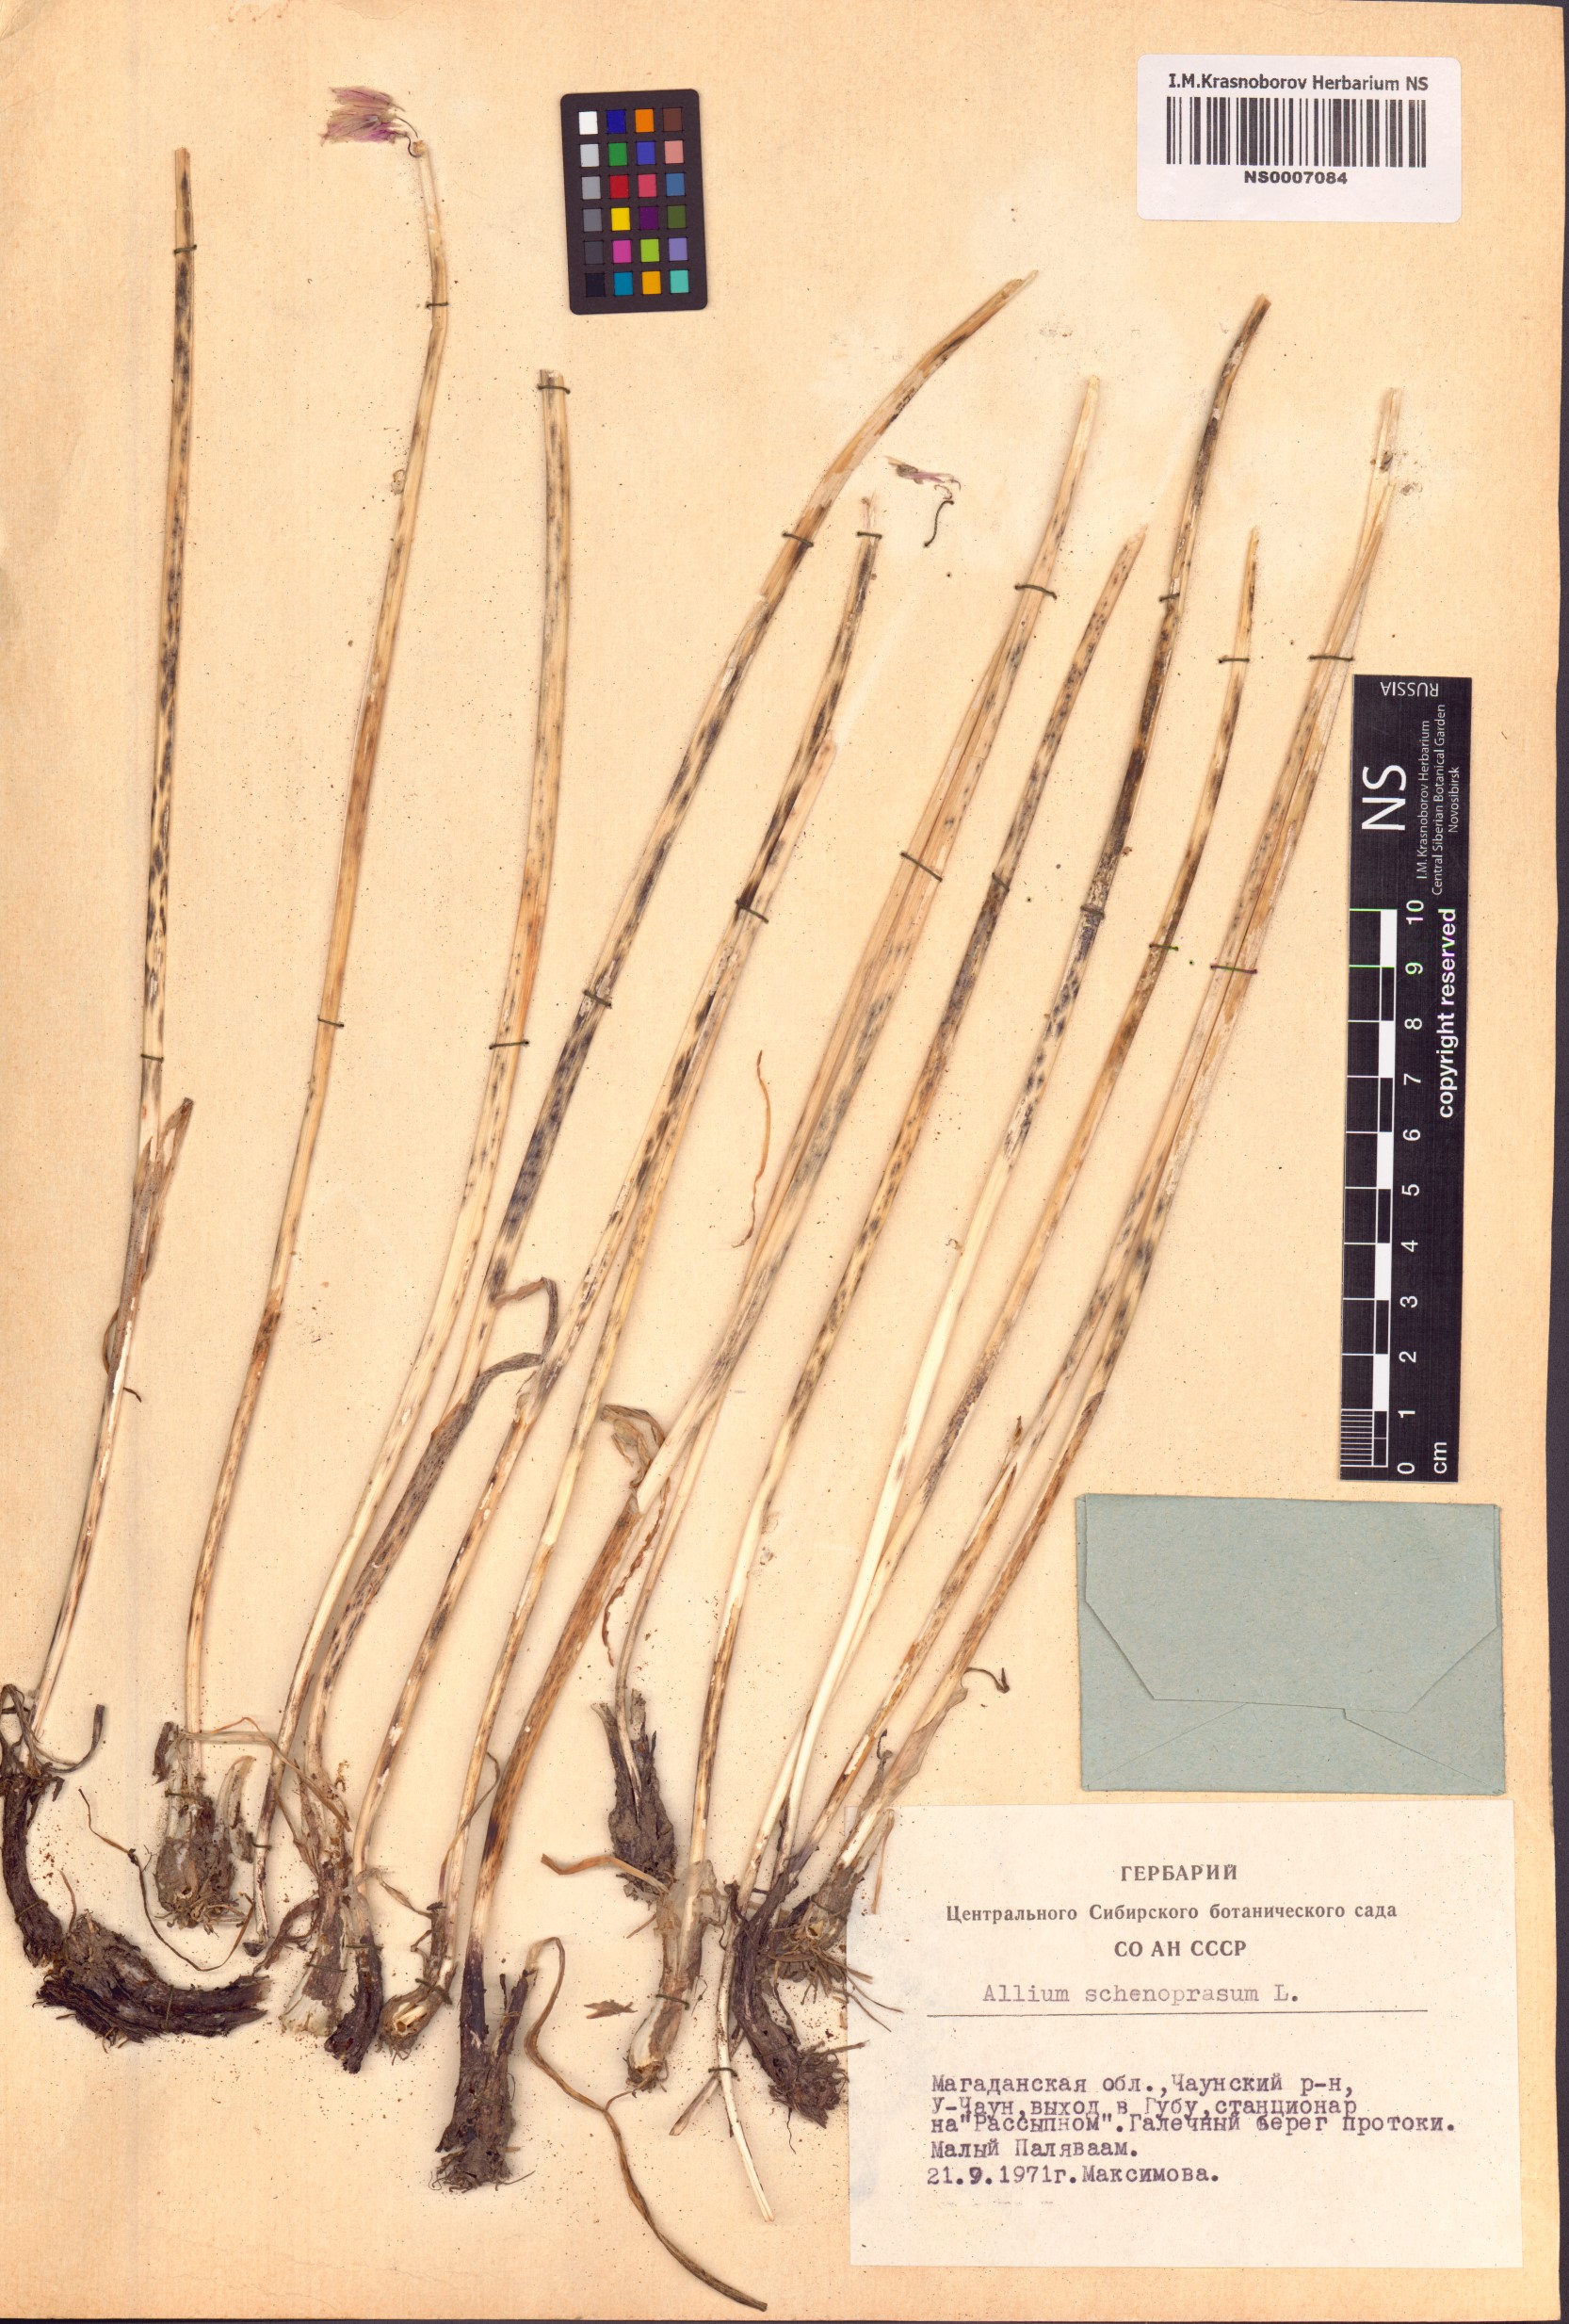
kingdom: Plantae
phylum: Tracheophyta
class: Liliopsida
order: Asparagales
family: Amaryllidaceae
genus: Allium
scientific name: Allium schoenoprasum
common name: Chives
